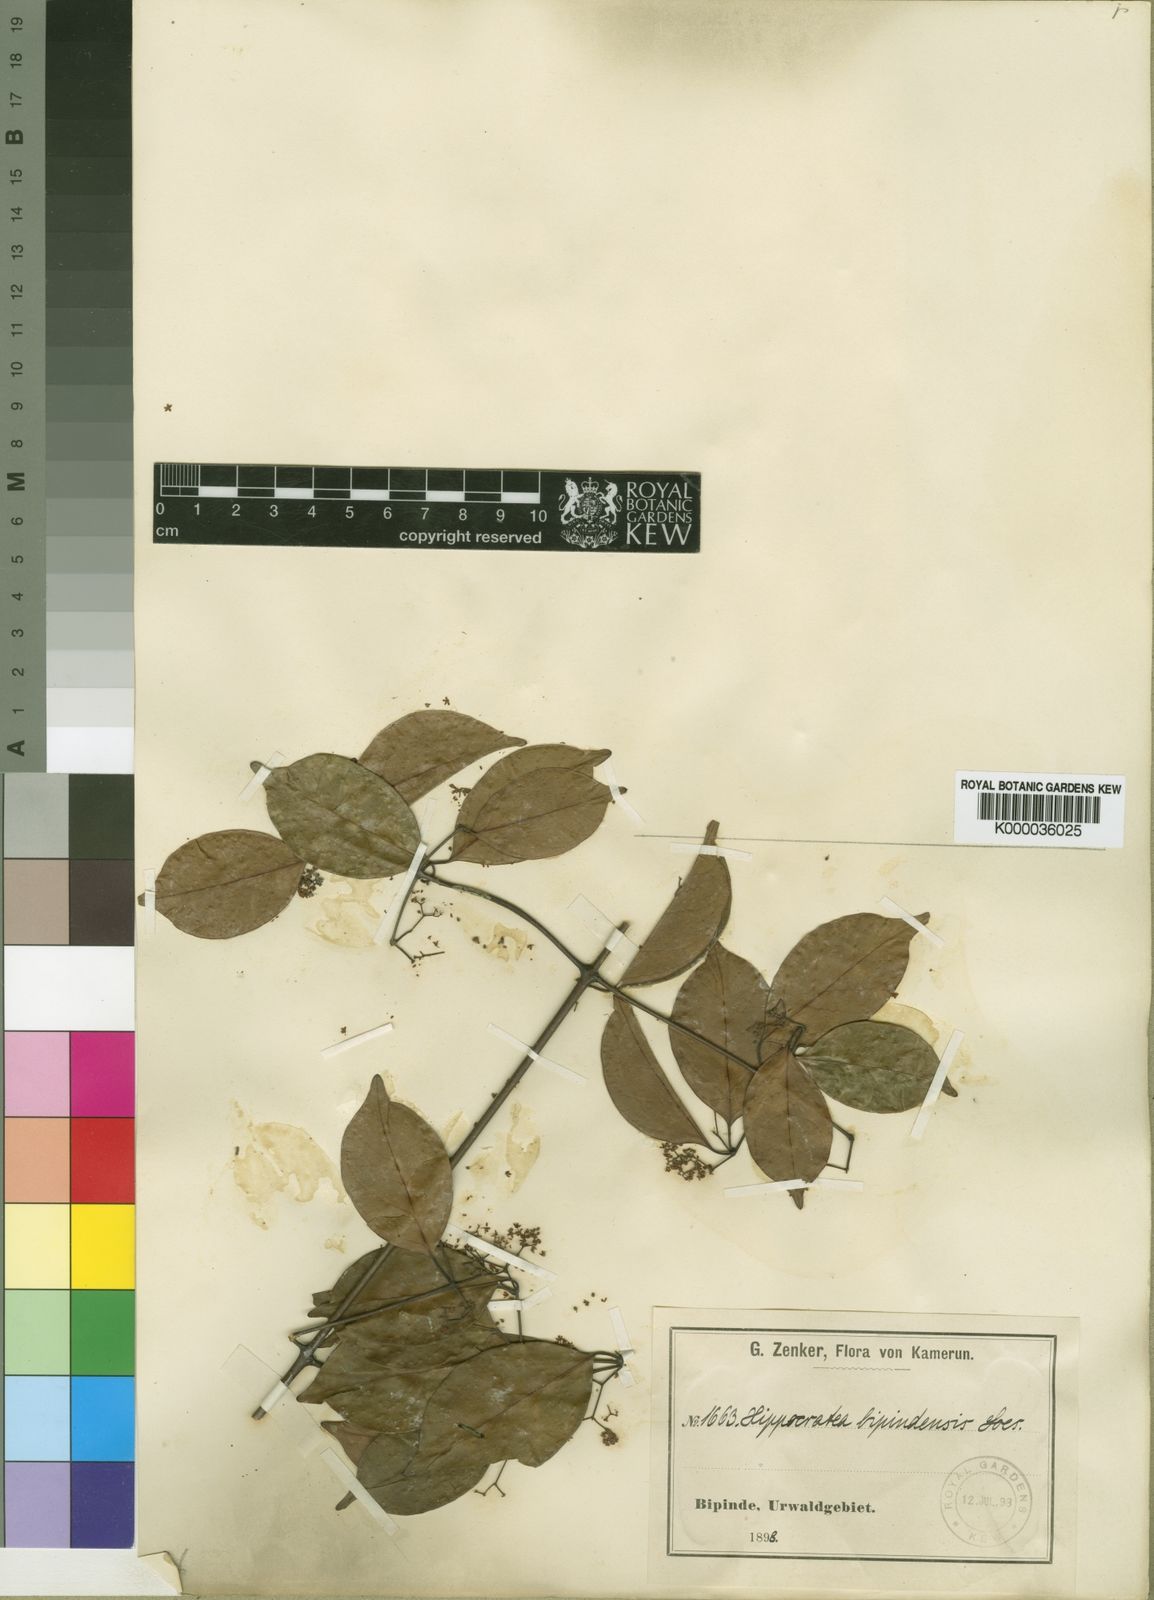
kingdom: Plantae
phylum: Tracheophyta
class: Magnoliopsida
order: Celastrales
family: Celastraceae
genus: Elachyptera
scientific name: Elachyptera bipindensis
